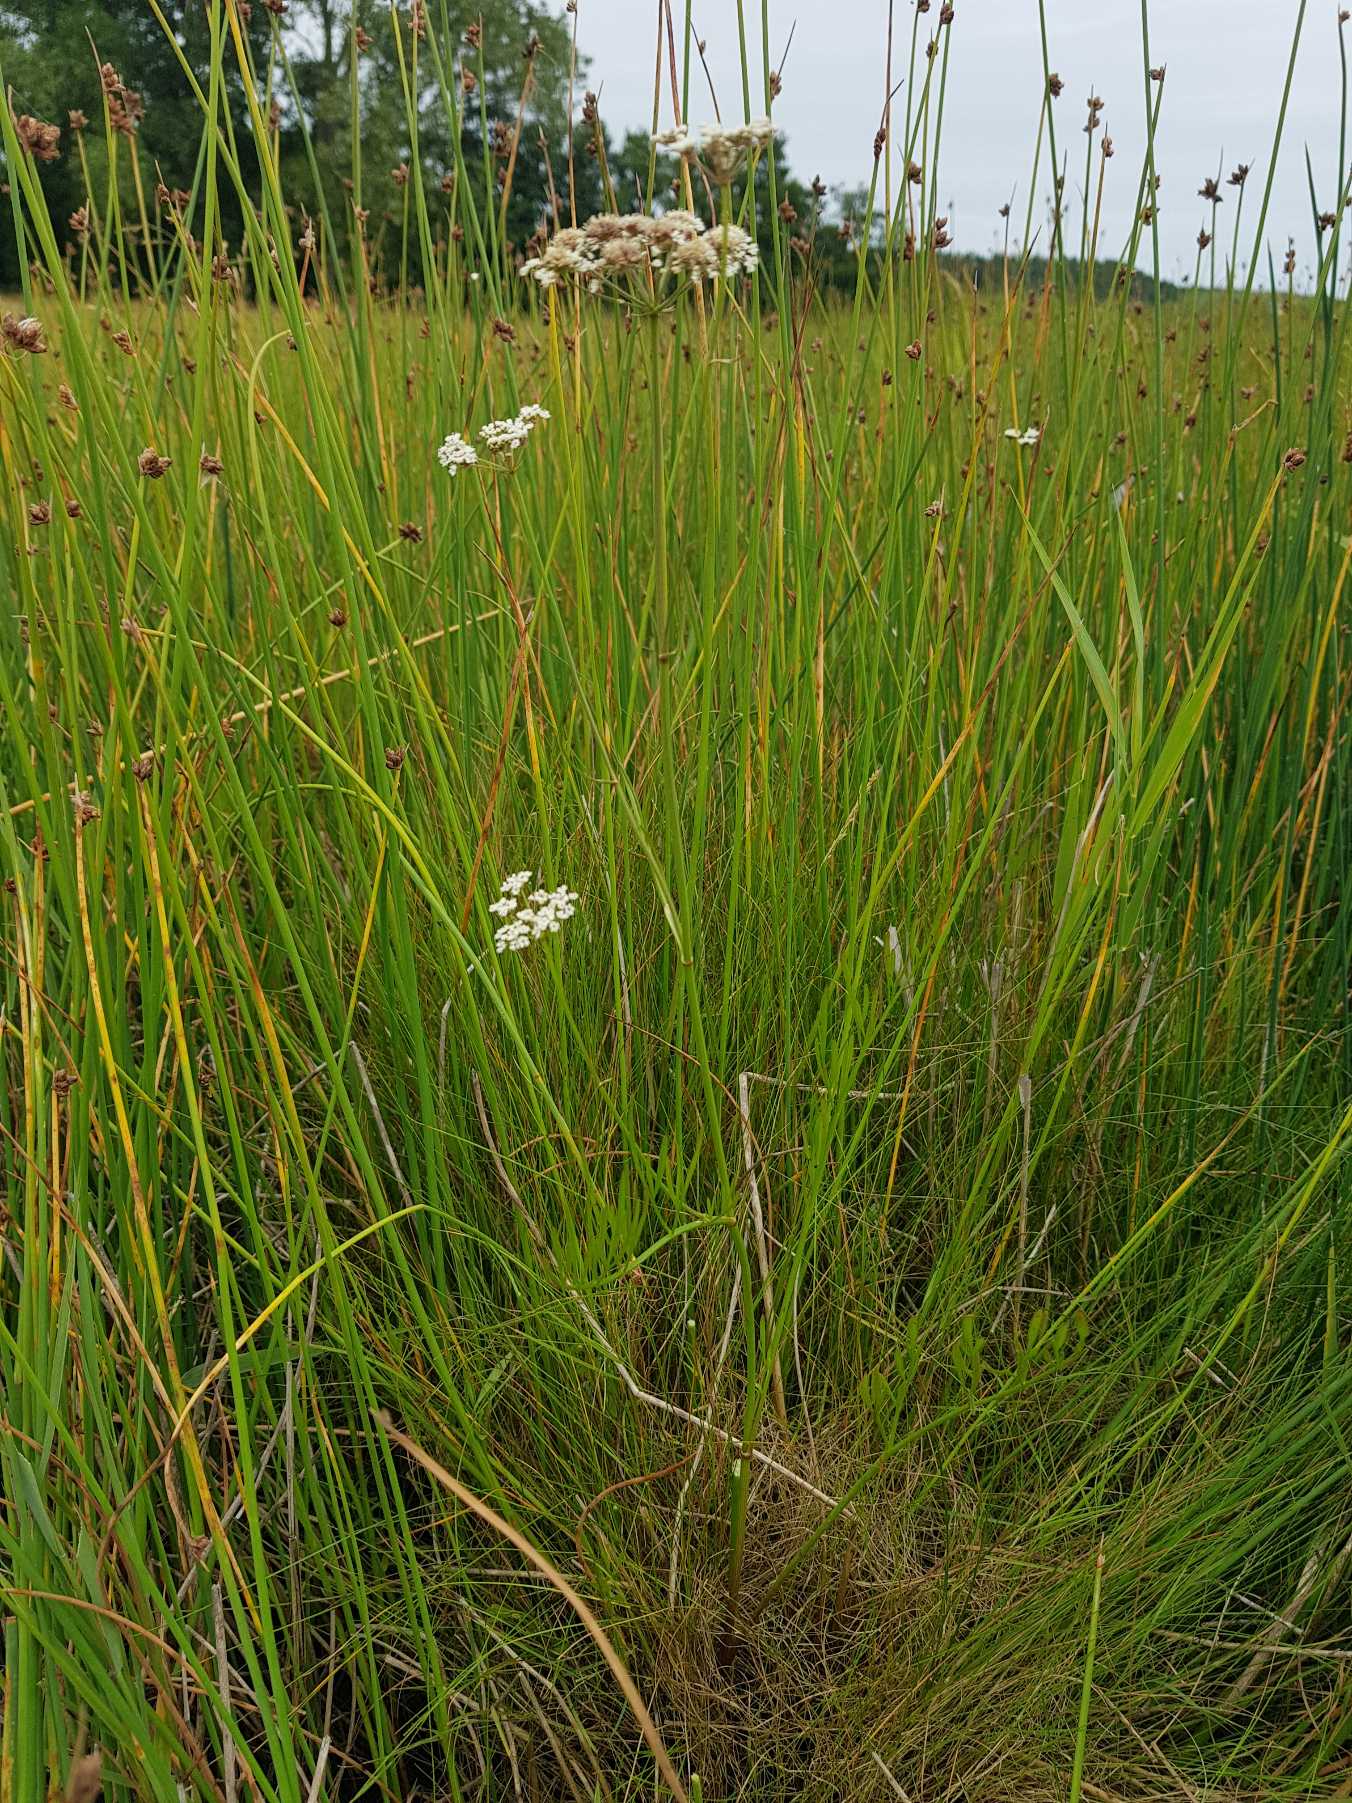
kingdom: Plantae
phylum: Tracheophyta
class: Magnoliopsida
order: Apiales
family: Apiaceae
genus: Oenanthe
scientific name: Oenanthe lachenalii
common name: Eng-klaseskærm
